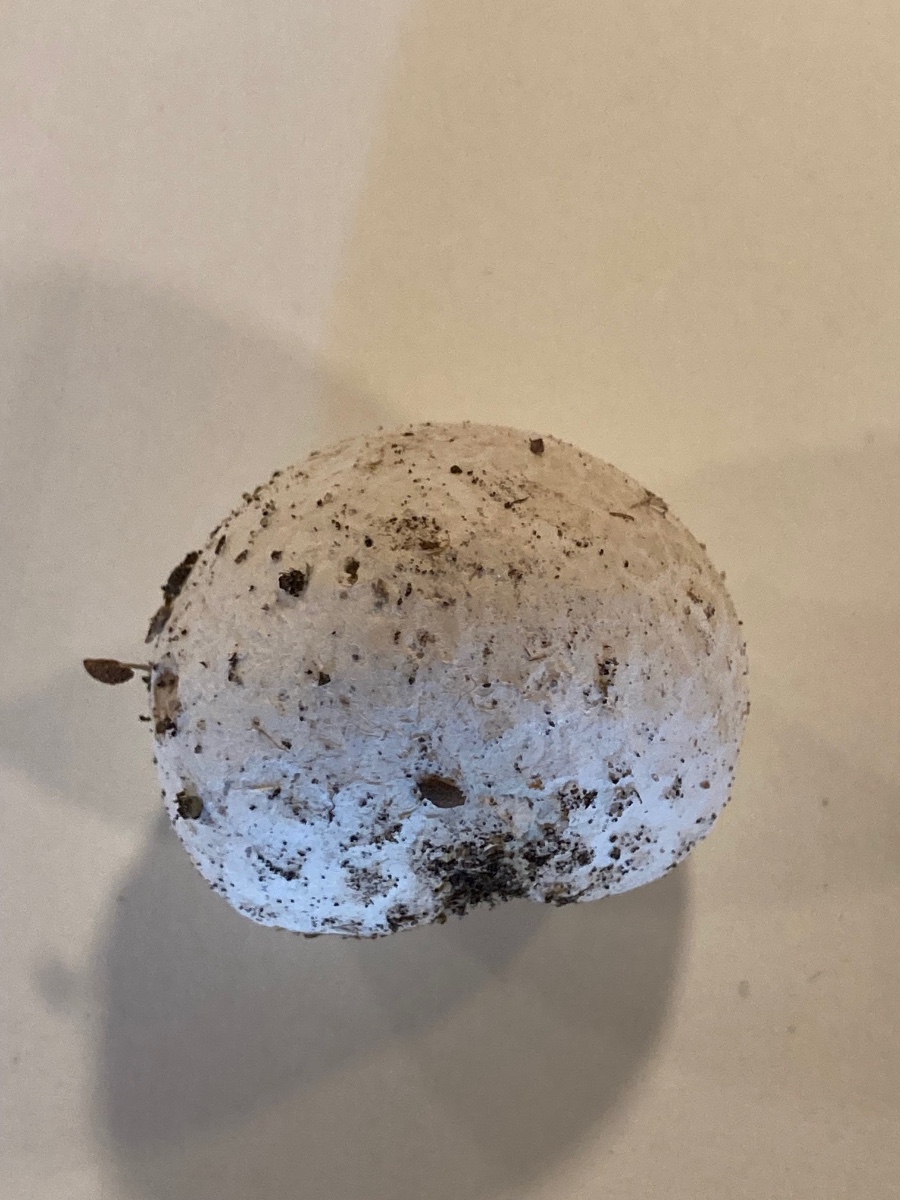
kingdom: Fungi
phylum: Basidiomycota
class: Agaricomycetes
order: Agaricales
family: Lycoperdaceae
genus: Bovista
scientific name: Bovista plumbea
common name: blygrå bovist
